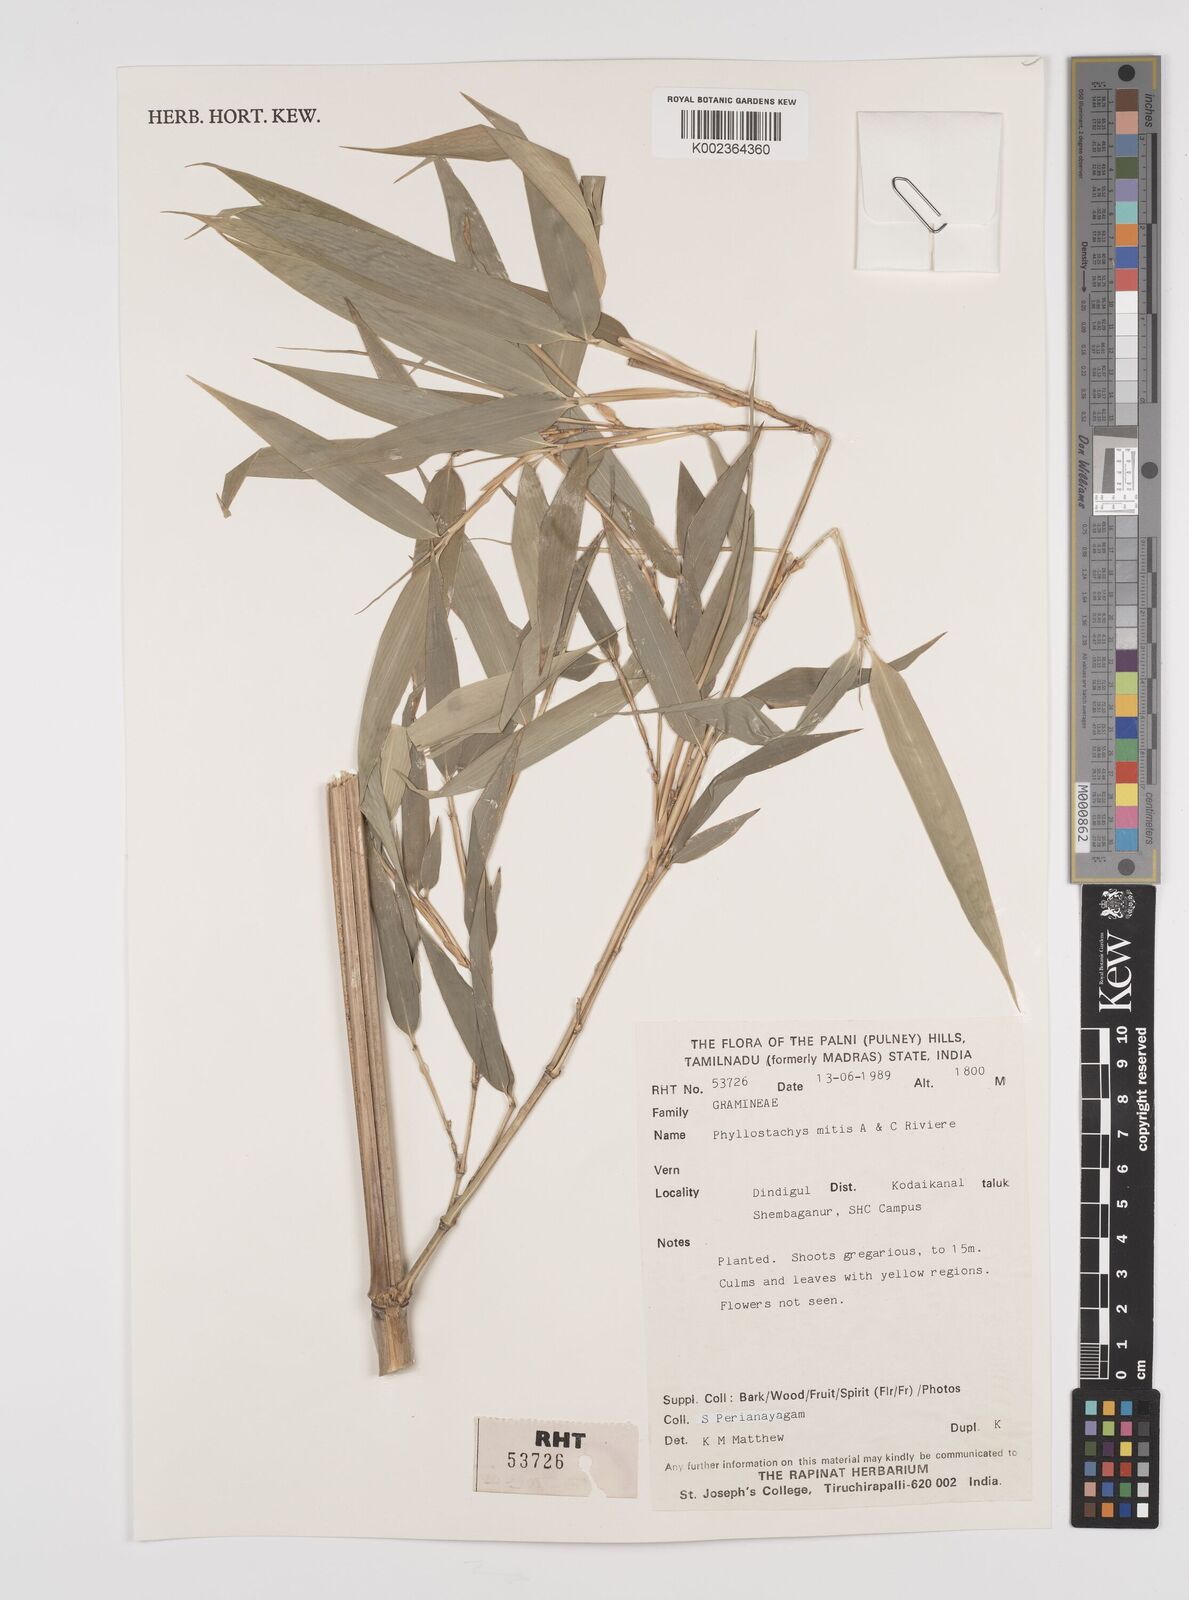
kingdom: Plantae
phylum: Tracheophyta
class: Liliopsida
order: Poales
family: Poaceae
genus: Bambusa
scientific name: Bambusa vulgaris
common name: Common bamboo
